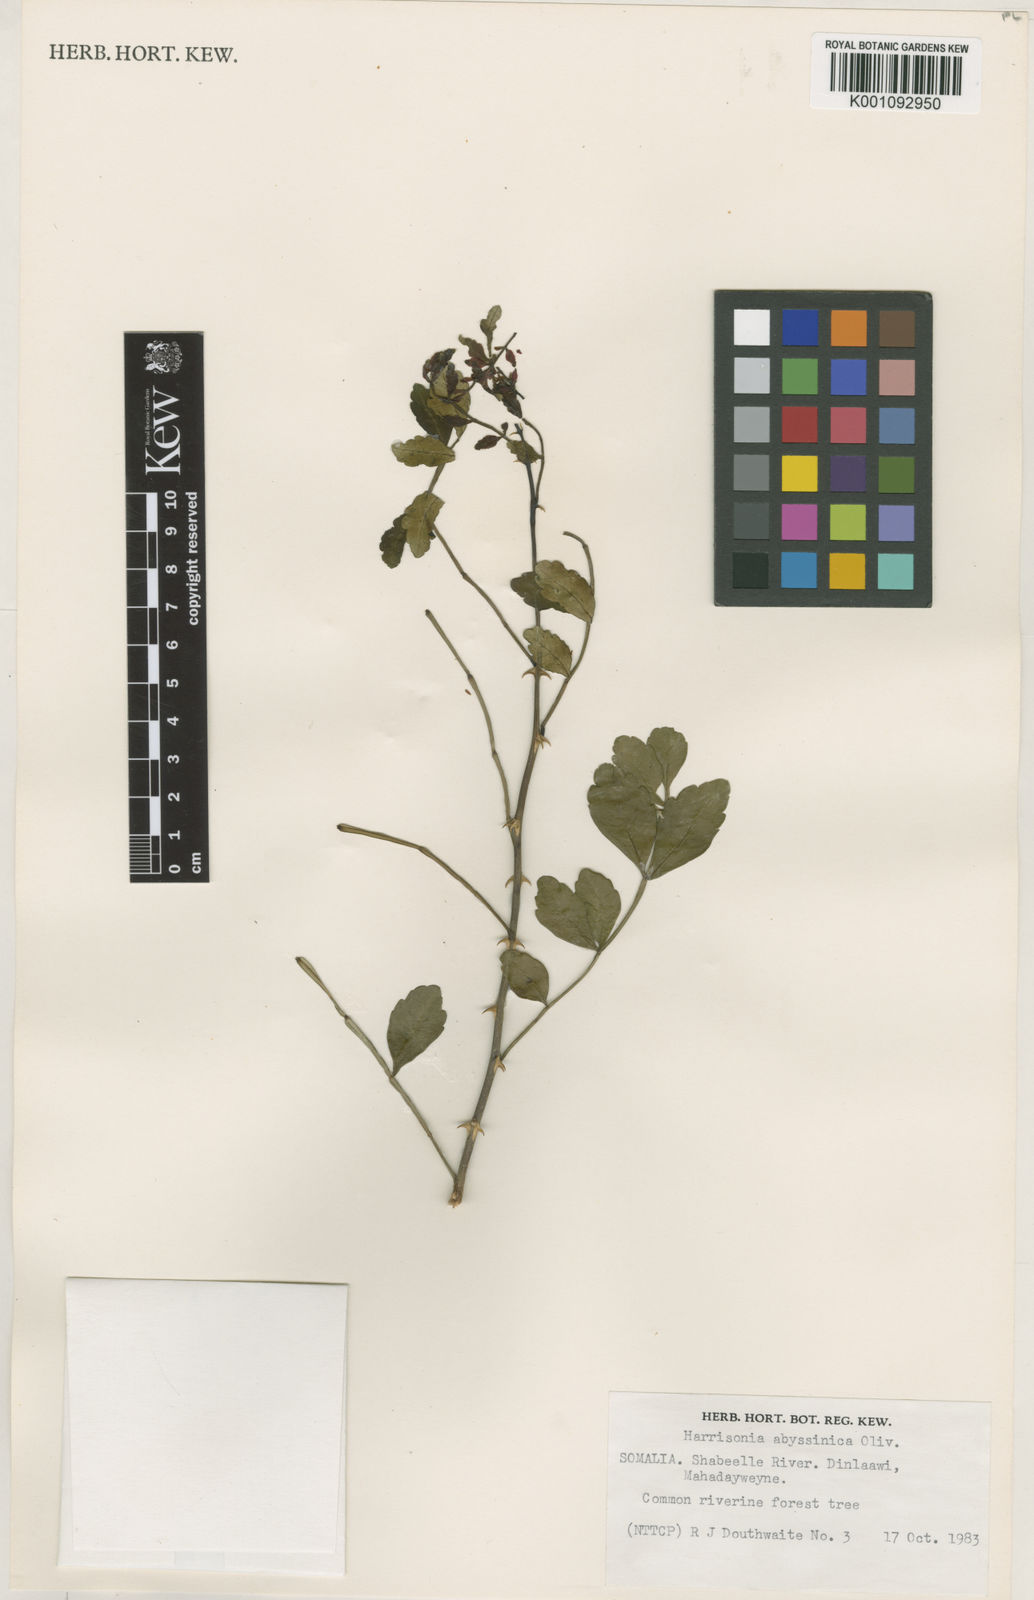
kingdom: Plantae
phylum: Tracheophyta
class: Magnoliopsida
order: Sapindales
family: Rutaceae
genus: Harrisonia
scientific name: Harrisonia abyssinica
